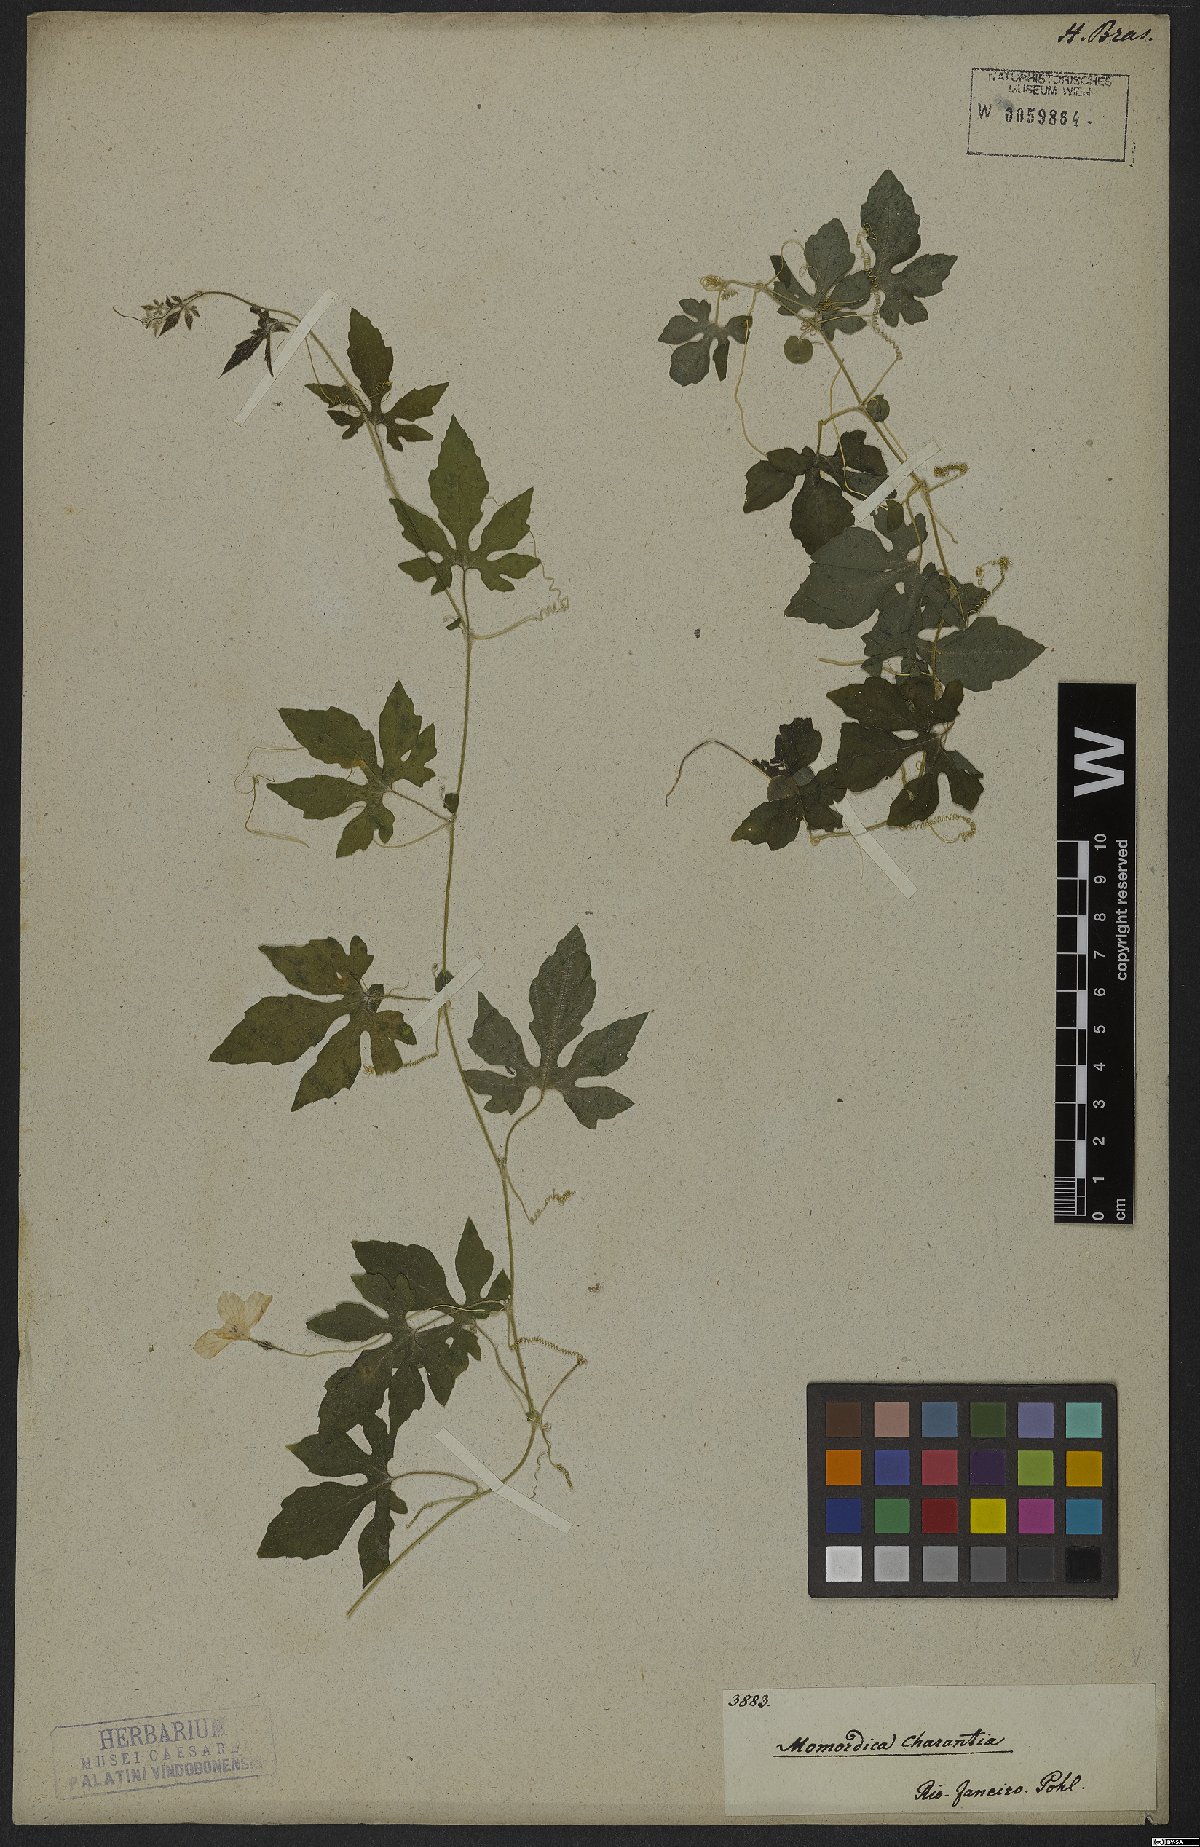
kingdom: Plantae
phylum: Tracheophyta
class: Magnoliopsida
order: Cucurbitales
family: Cucurbitaceae
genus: Momordica
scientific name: Momordica charantia
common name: Balsampear
